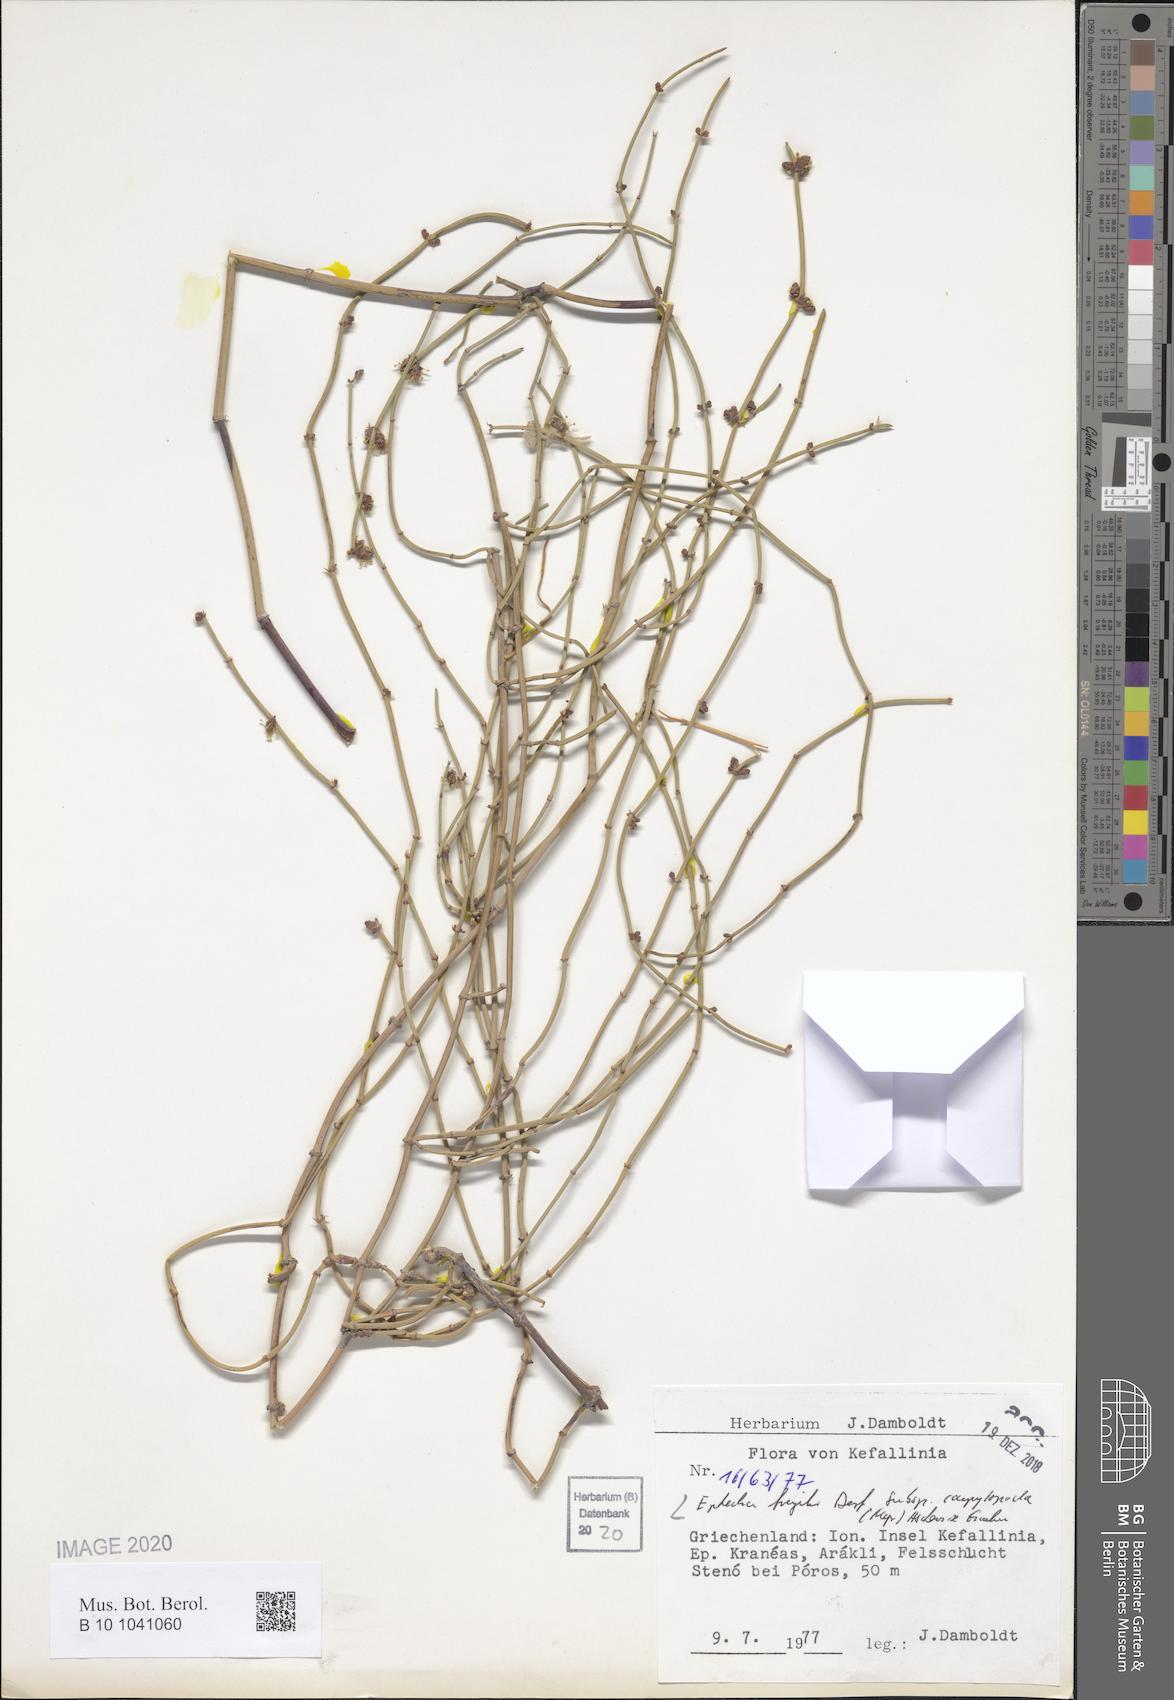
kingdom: Plantae
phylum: Tracheophyta
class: Gnetopsida
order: Ephedrales
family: Ephedraceae
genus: Ephedra
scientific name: Ephedra foeminea
